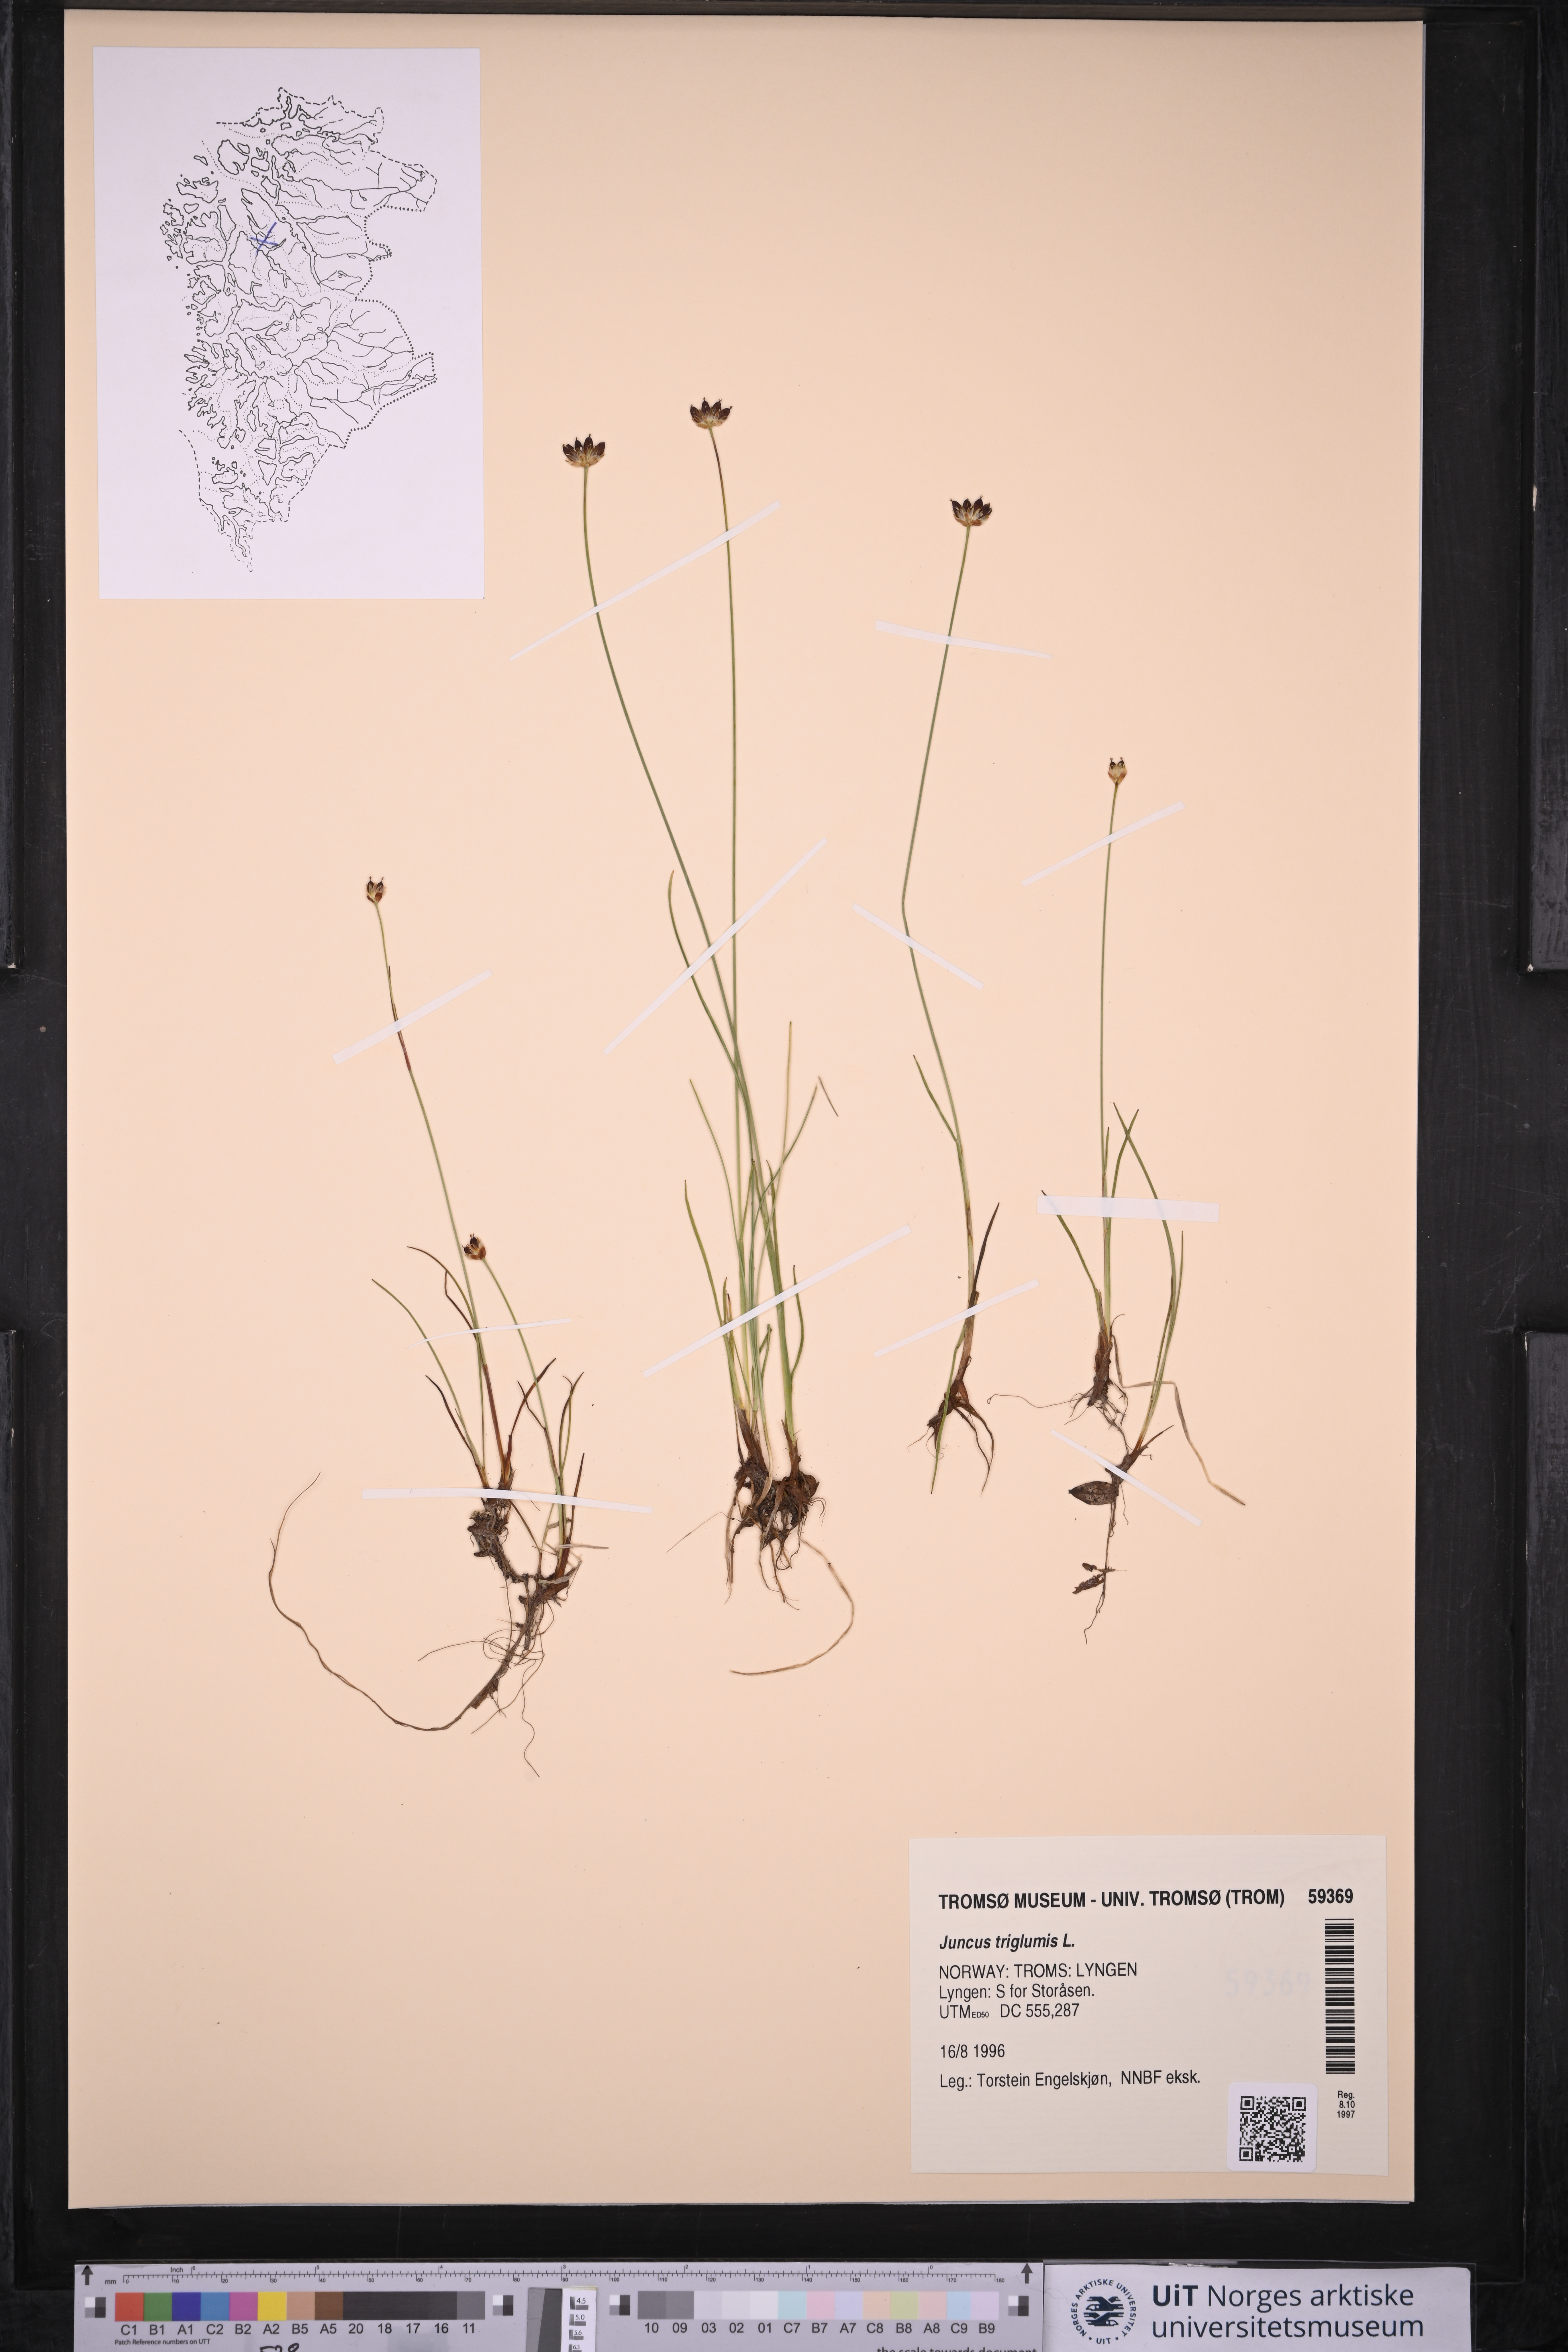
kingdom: Plantae
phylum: Tracheophyta
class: Liliopsida
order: Poales
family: Juncaceae
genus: Juncus
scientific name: Juncus triglumis
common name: Three-flowered rush
